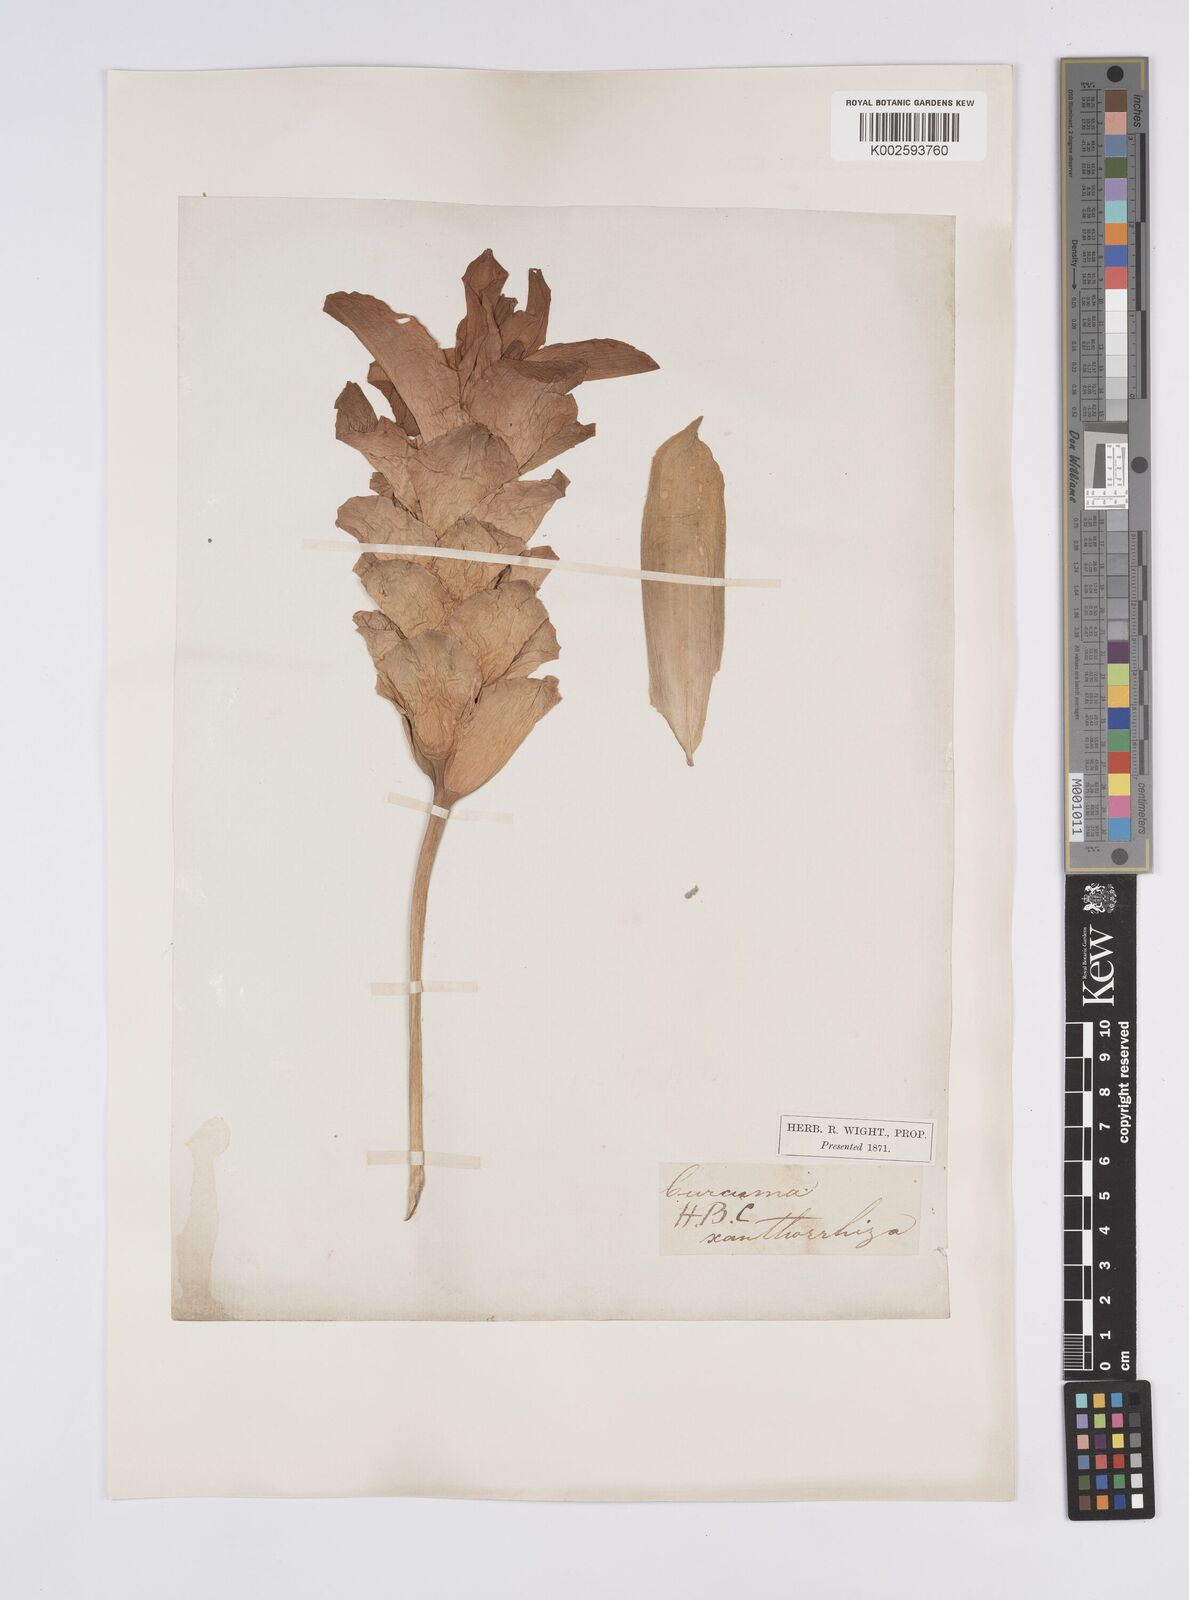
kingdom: Plantae
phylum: Tracheophyta
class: Liliopsida
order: Zingiberales
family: Zingiberaceae
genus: Curcuma
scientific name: Curcuma zanthorrhiza
